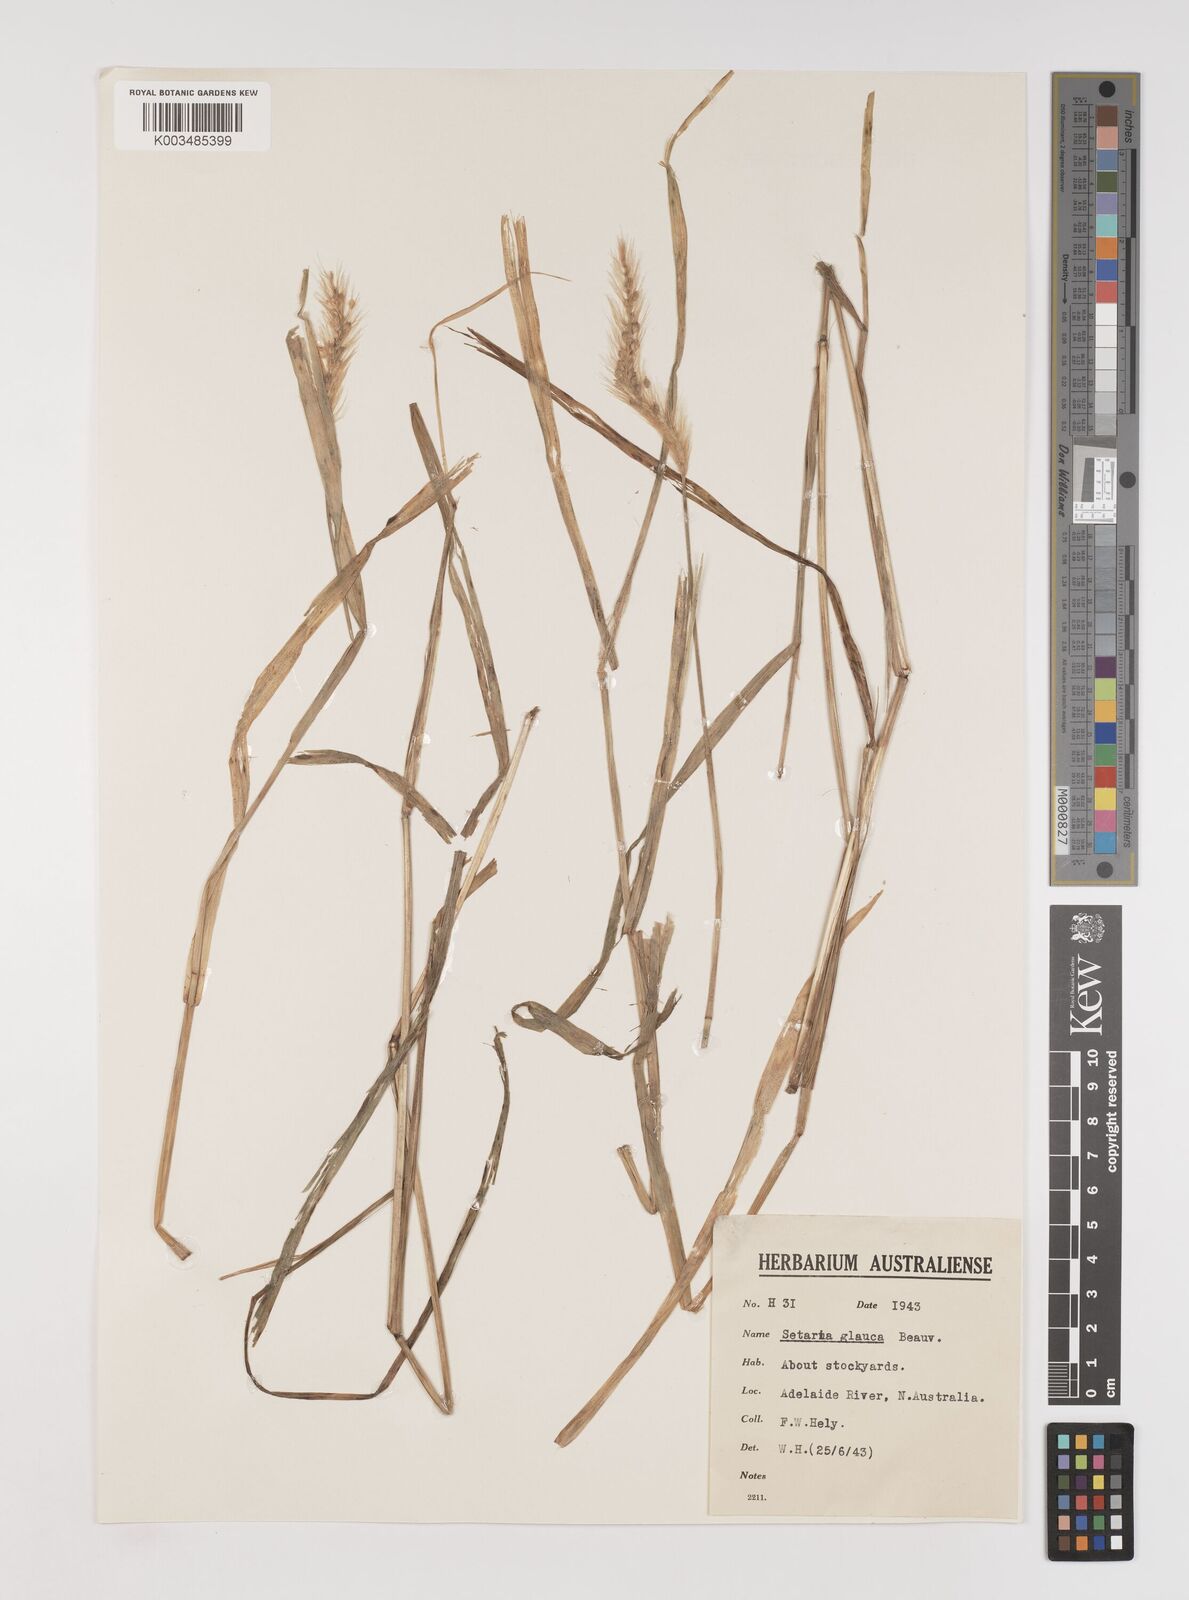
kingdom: Plantae
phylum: Tracheophyta
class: Liliopsida
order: Poales
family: Poaceae
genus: Setaria
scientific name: Setaria pumila
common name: Yellow bristle-grass
